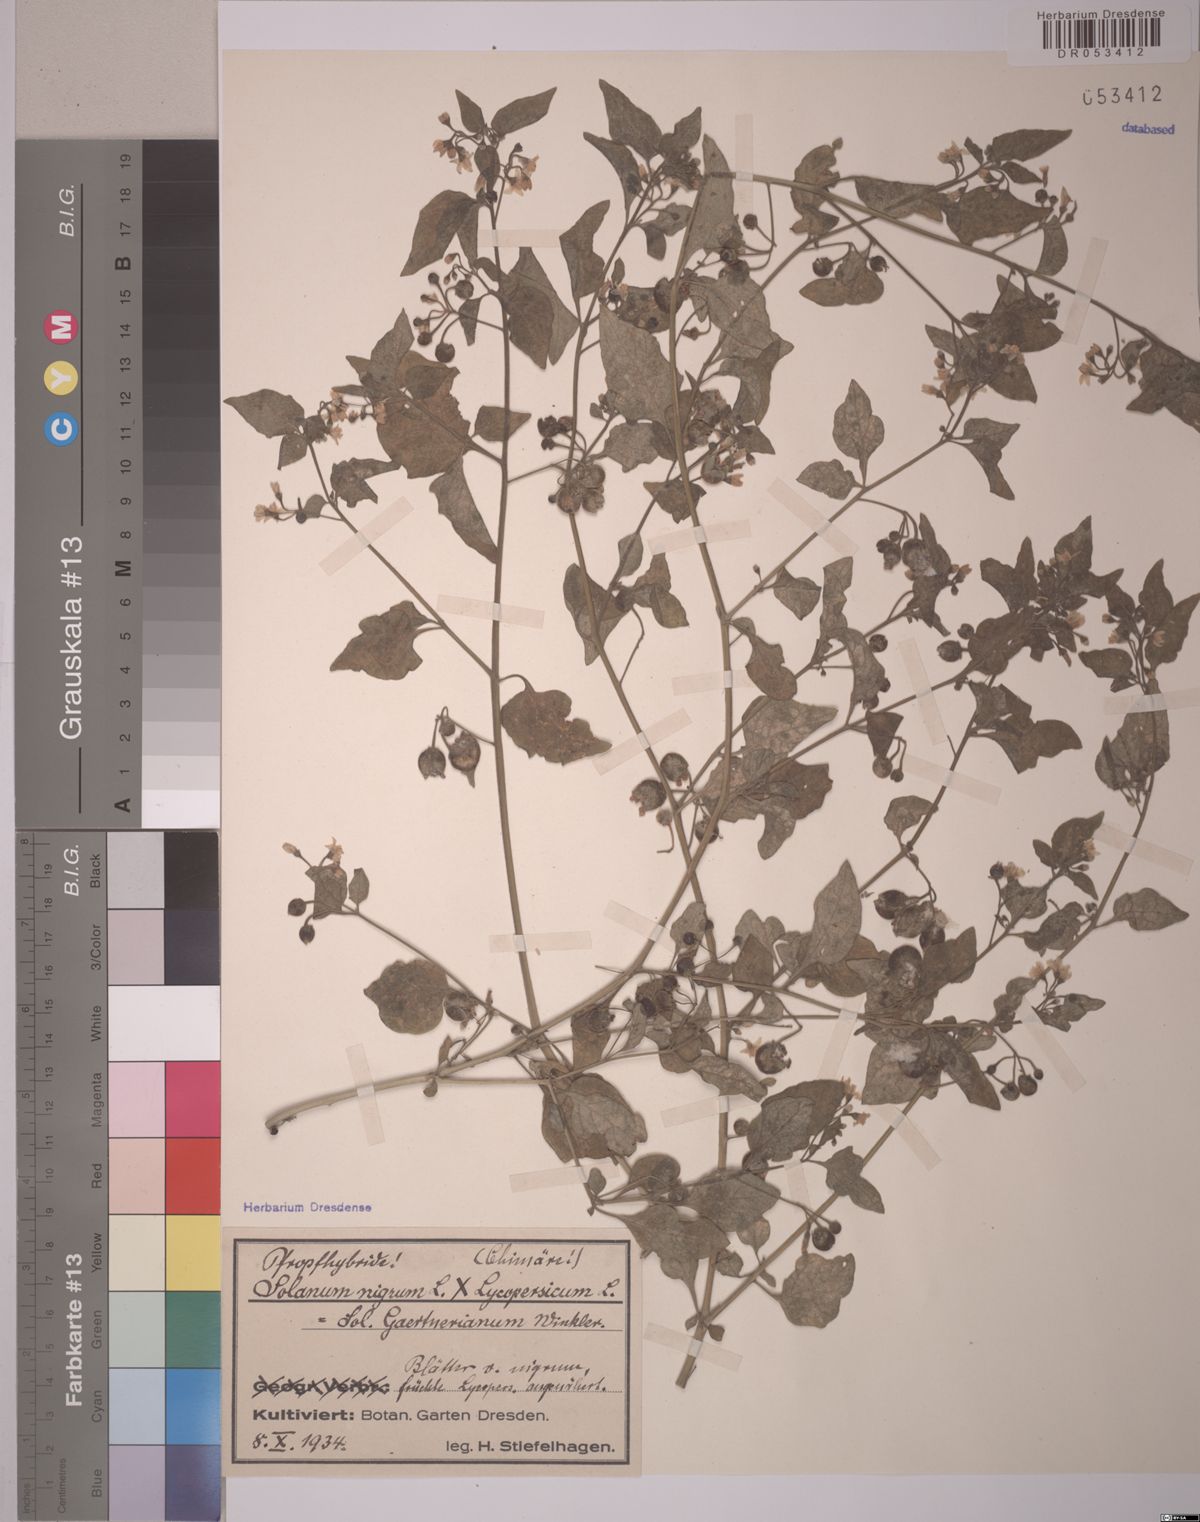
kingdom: Plantae
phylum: Tracheophyta
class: Magnoliopsida
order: Solanales
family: Solanaceae
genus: Solanum
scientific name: Solanum
